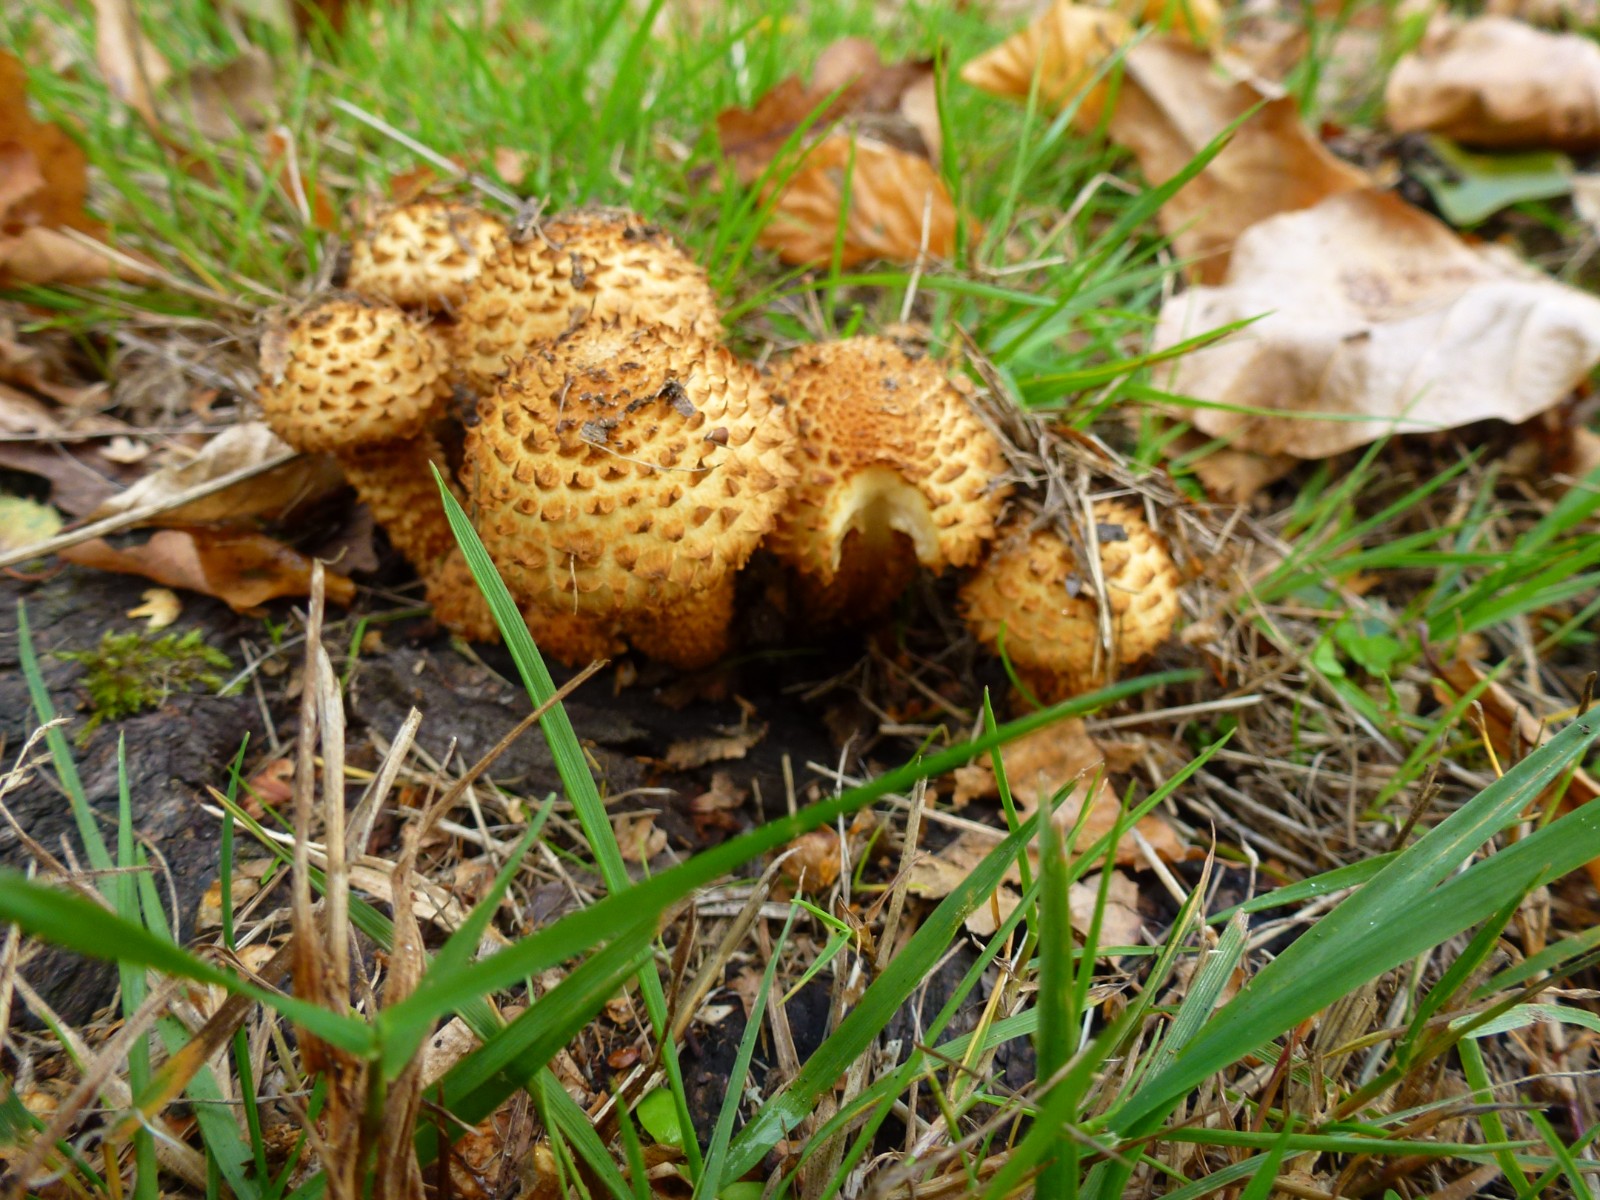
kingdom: Fungi
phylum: Basidiomycota
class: Agaricomycetes
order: Agaricales
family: Strophariaceae
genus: Pholiota
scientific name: Pholiota squarrosa
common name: krumskællet skælhat
